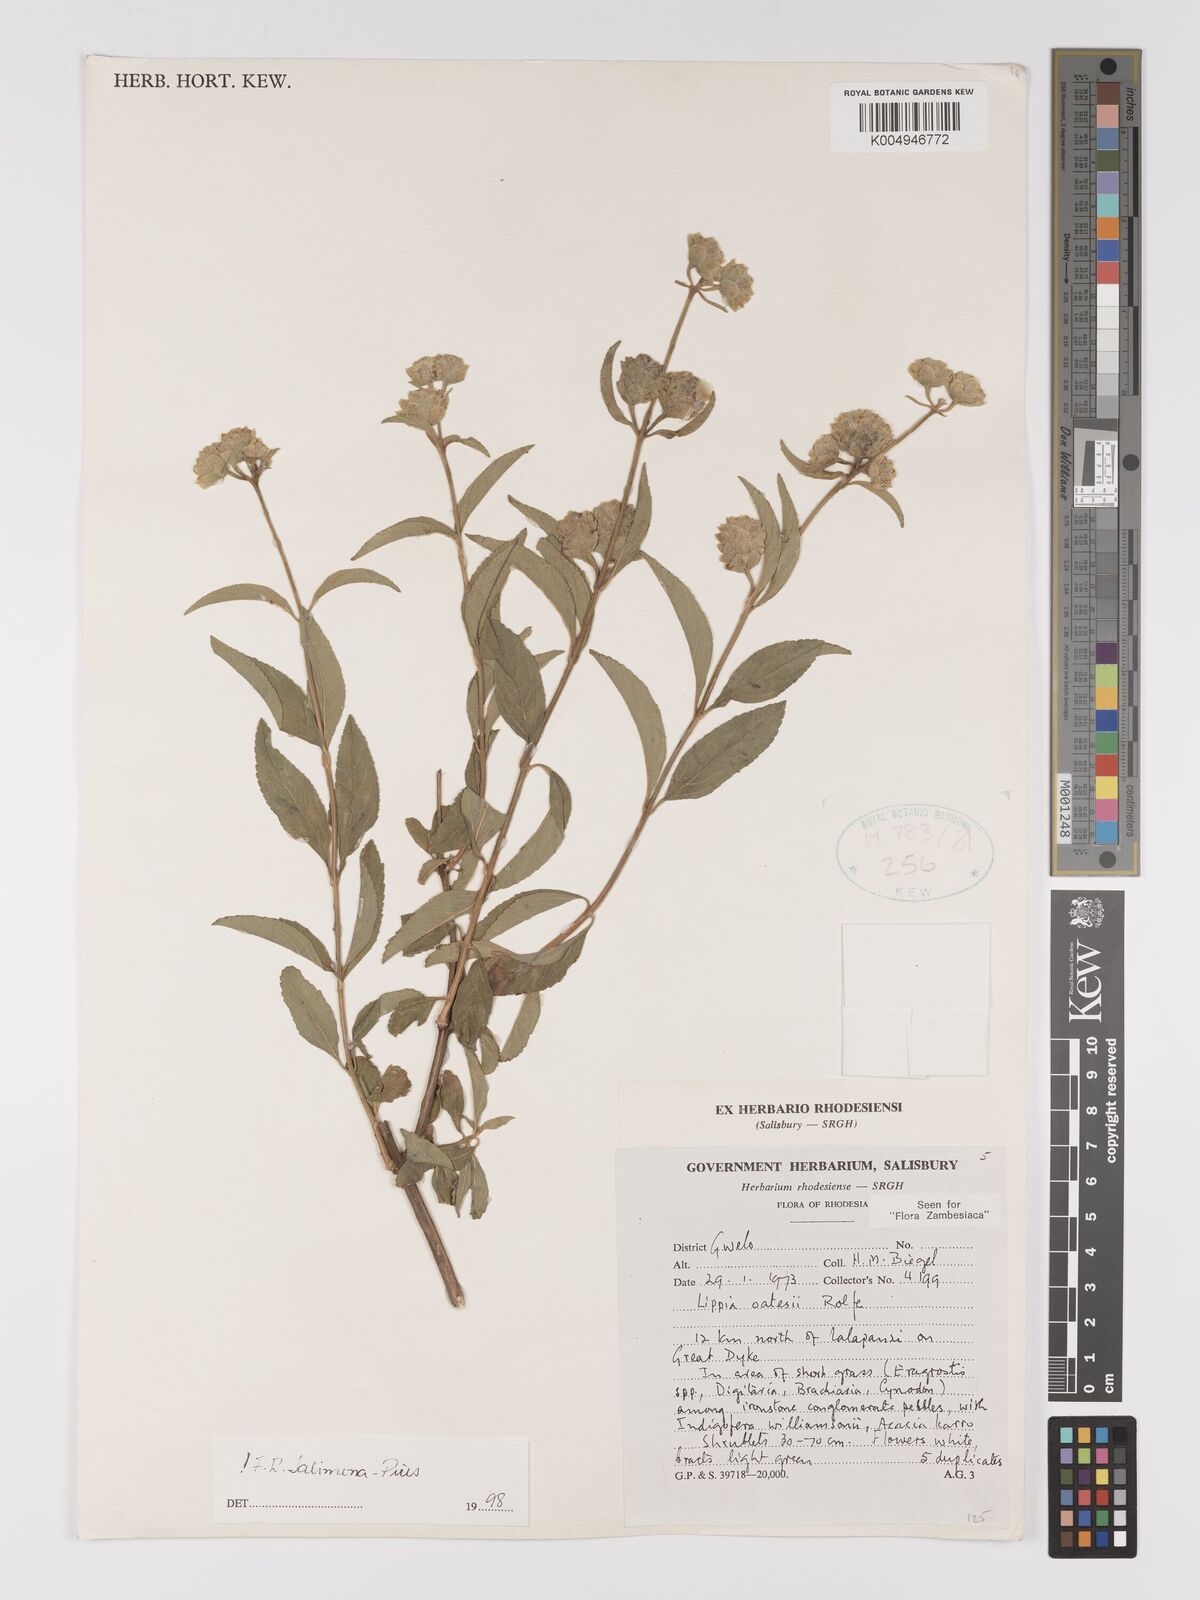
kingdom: Plantae
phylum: Tracheophyta
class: Magnoliopsida
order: Lamiales
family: Verbenaceae
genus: Lippia
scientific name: Lippia oatesii
